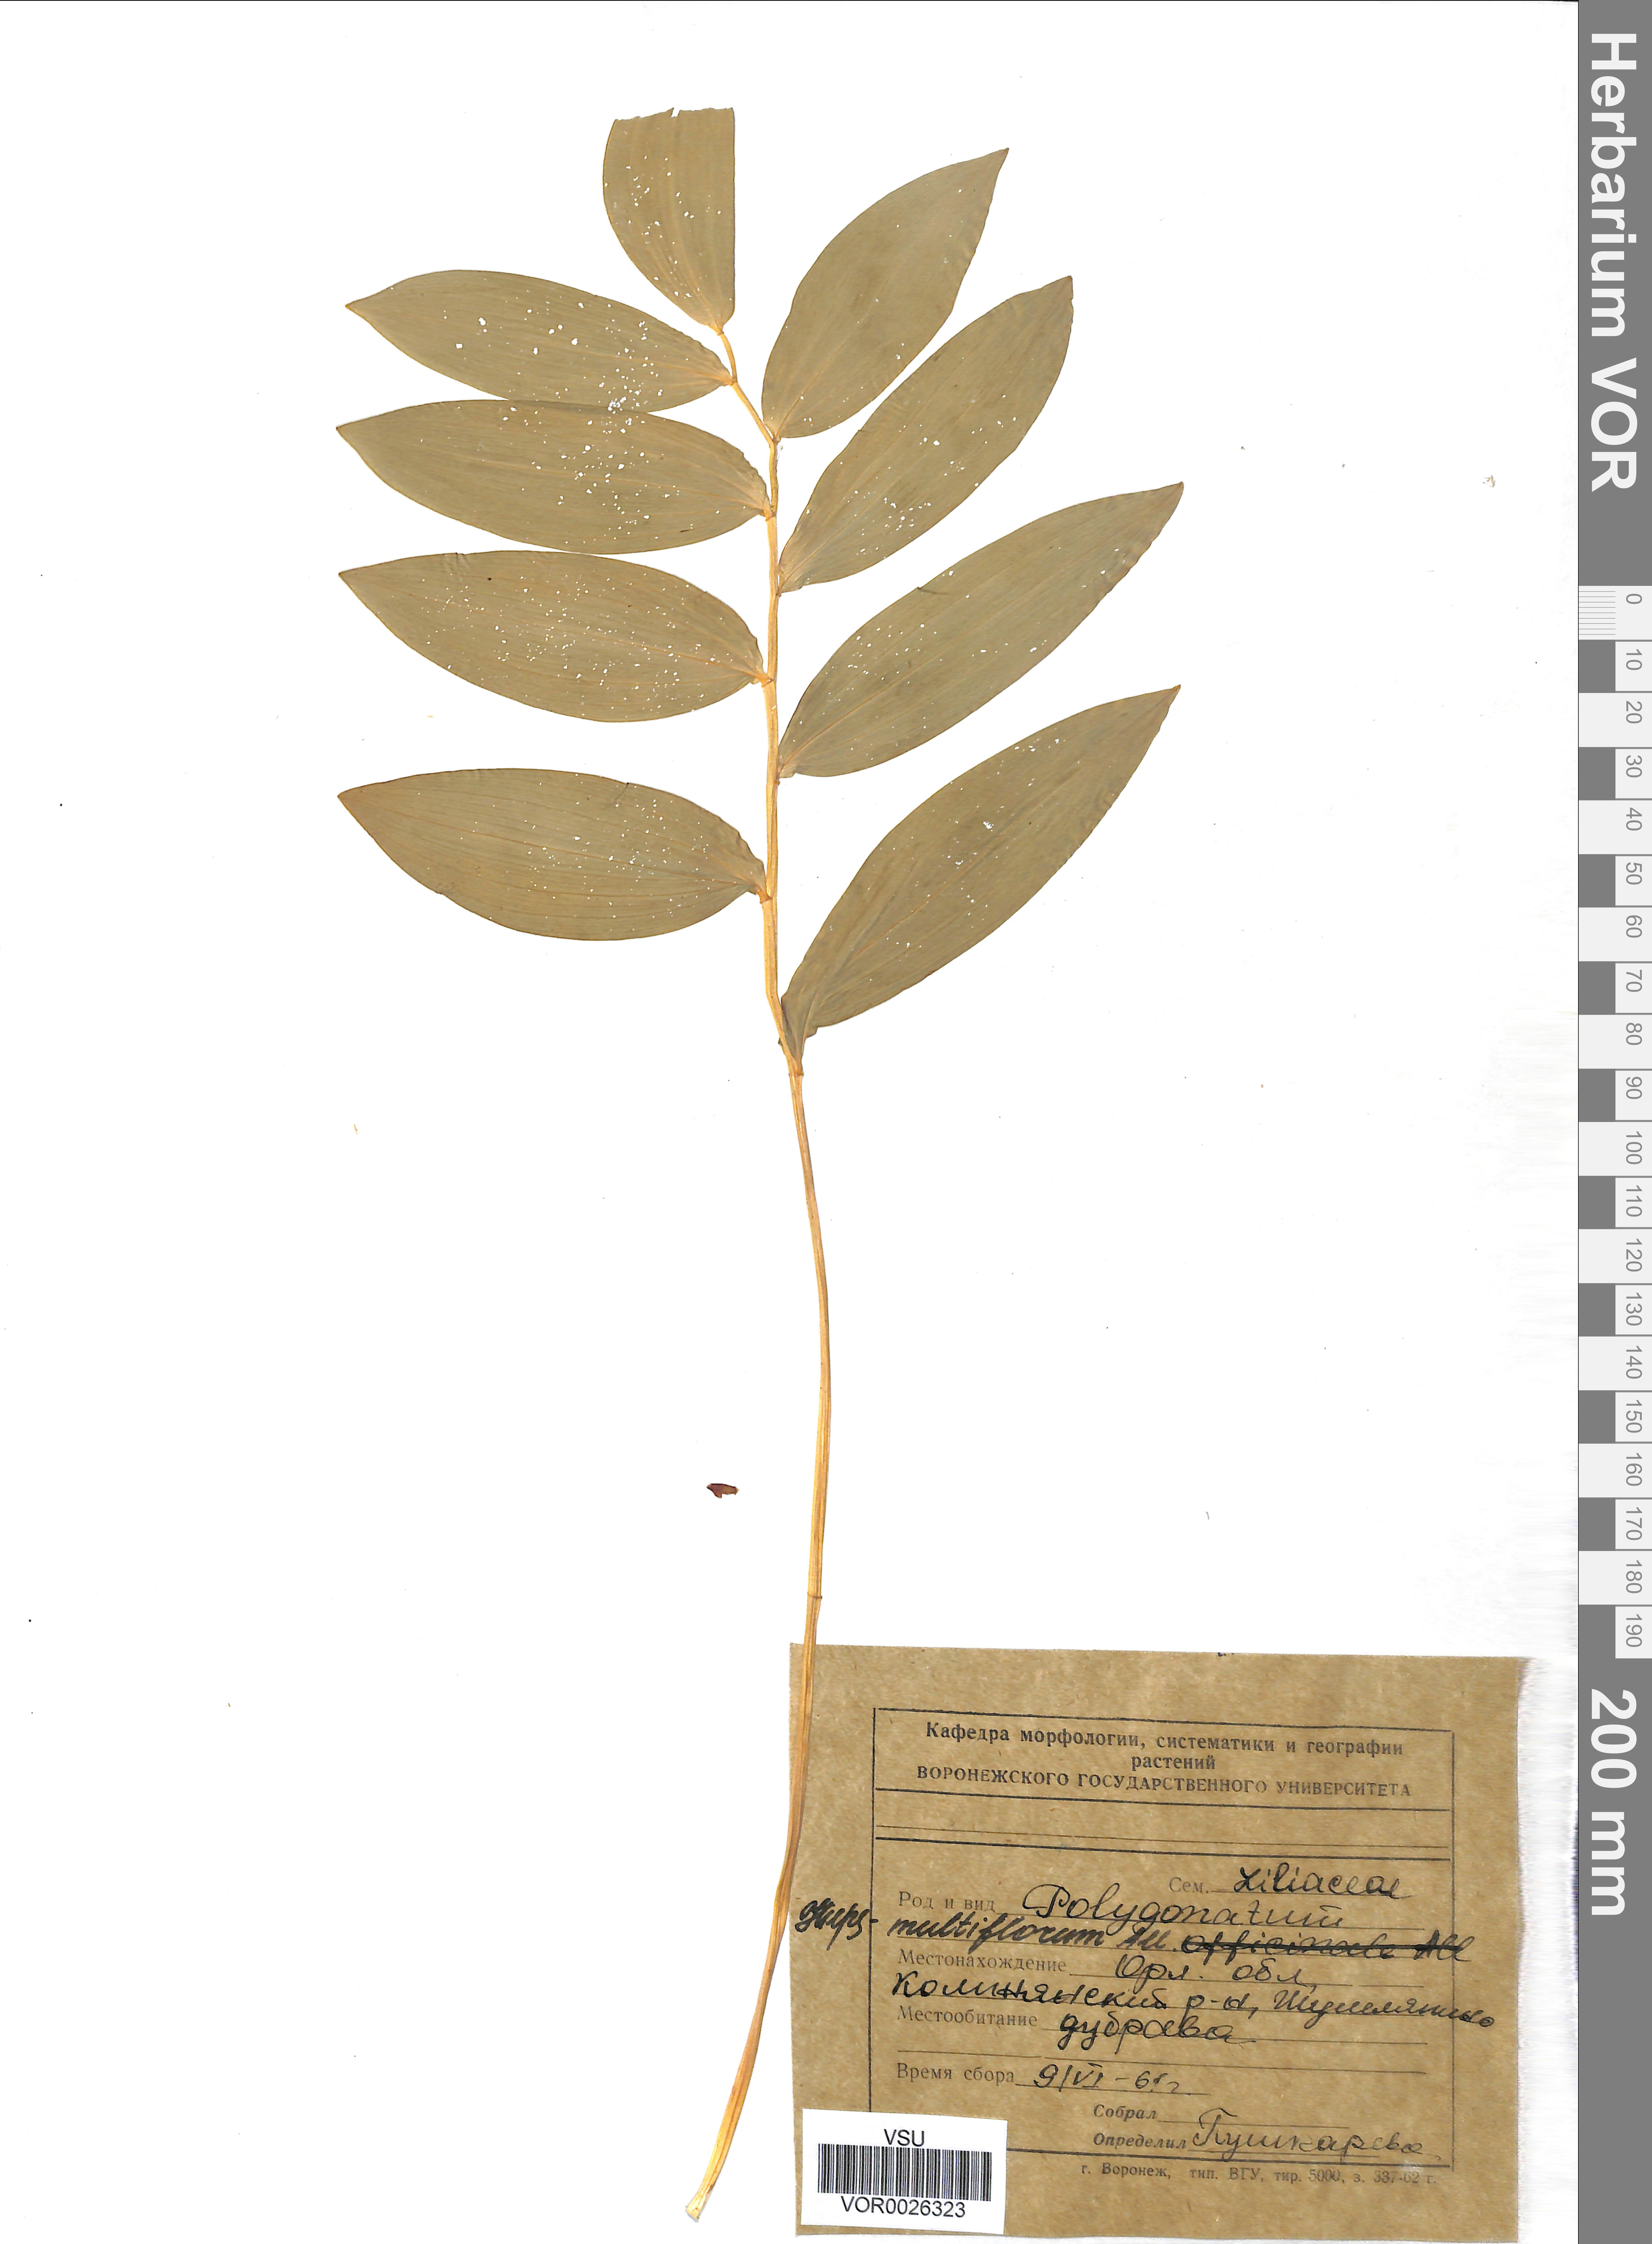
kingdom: Plantae
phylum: Tracheophyta
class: Liliopsida
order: Asparagales
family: Asparagaceae
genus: Polygonatum
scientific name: Polygonatum multiflorum
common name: Solomon's-seal
